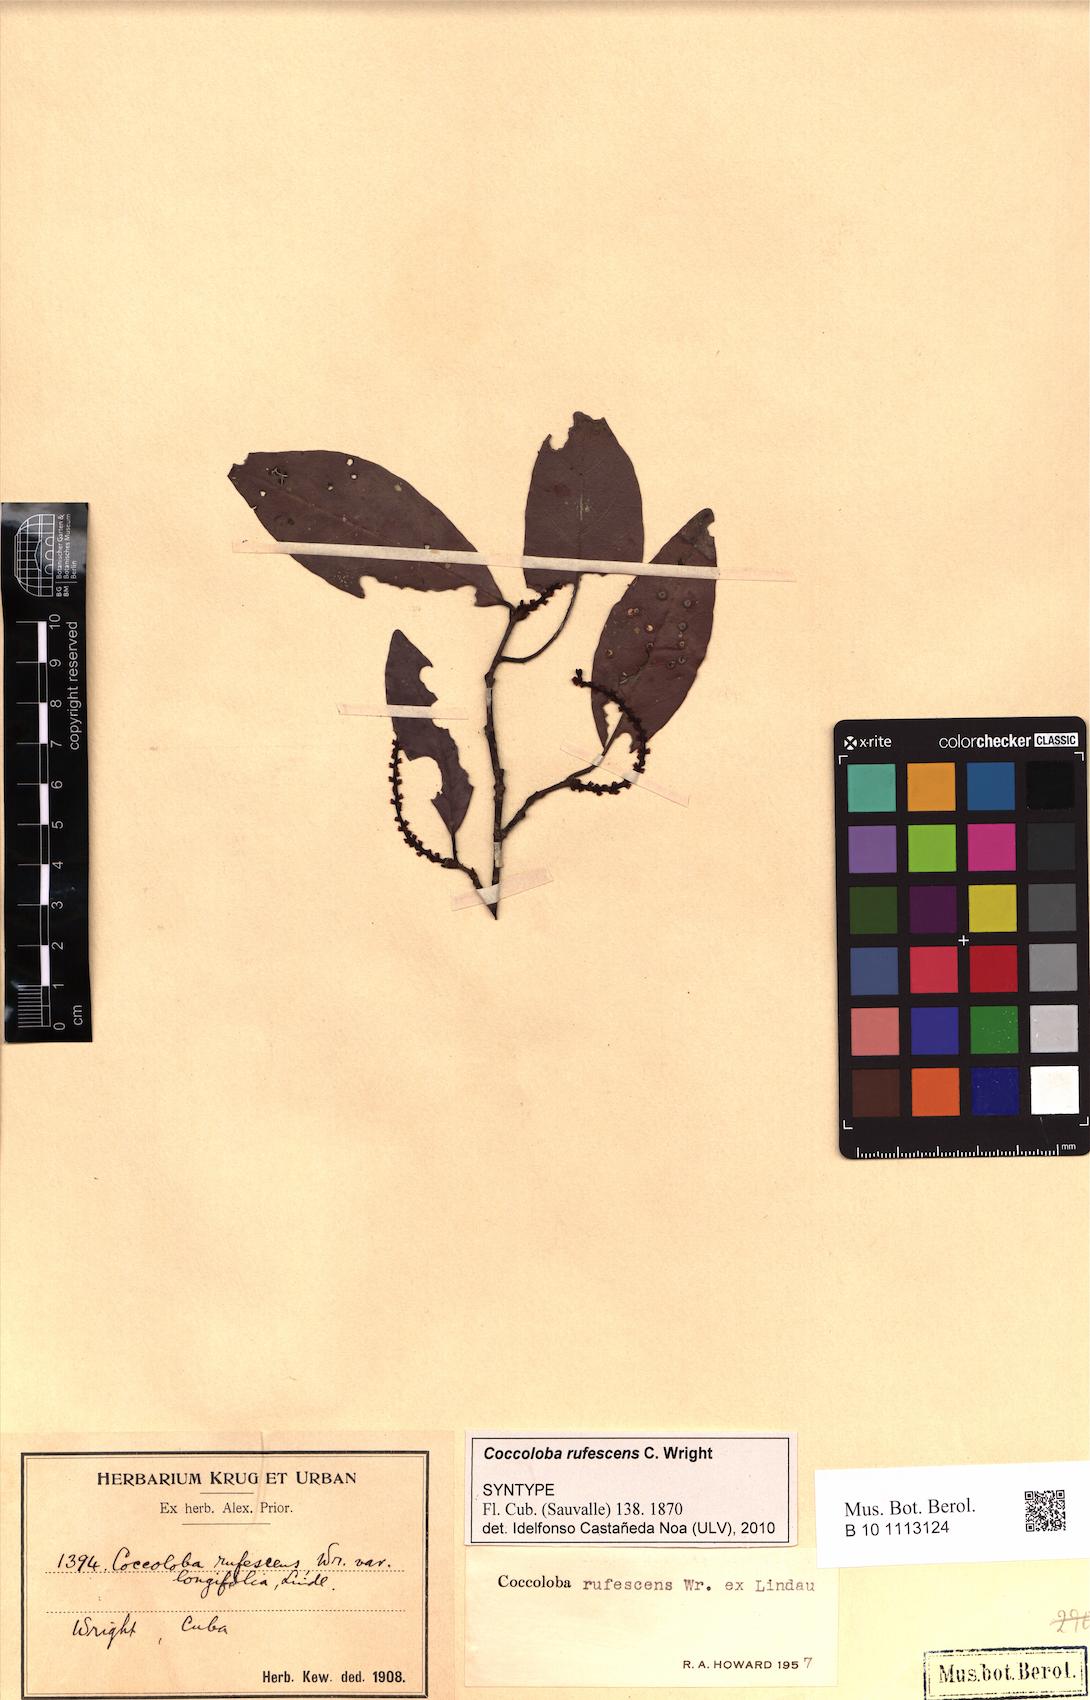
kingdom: Plantae
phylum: Tracheophyta
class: Magnoliopsida
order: Caryophyllales
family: Polygonaceae
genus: Coccoloba
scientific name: Coccoloba rufescens
